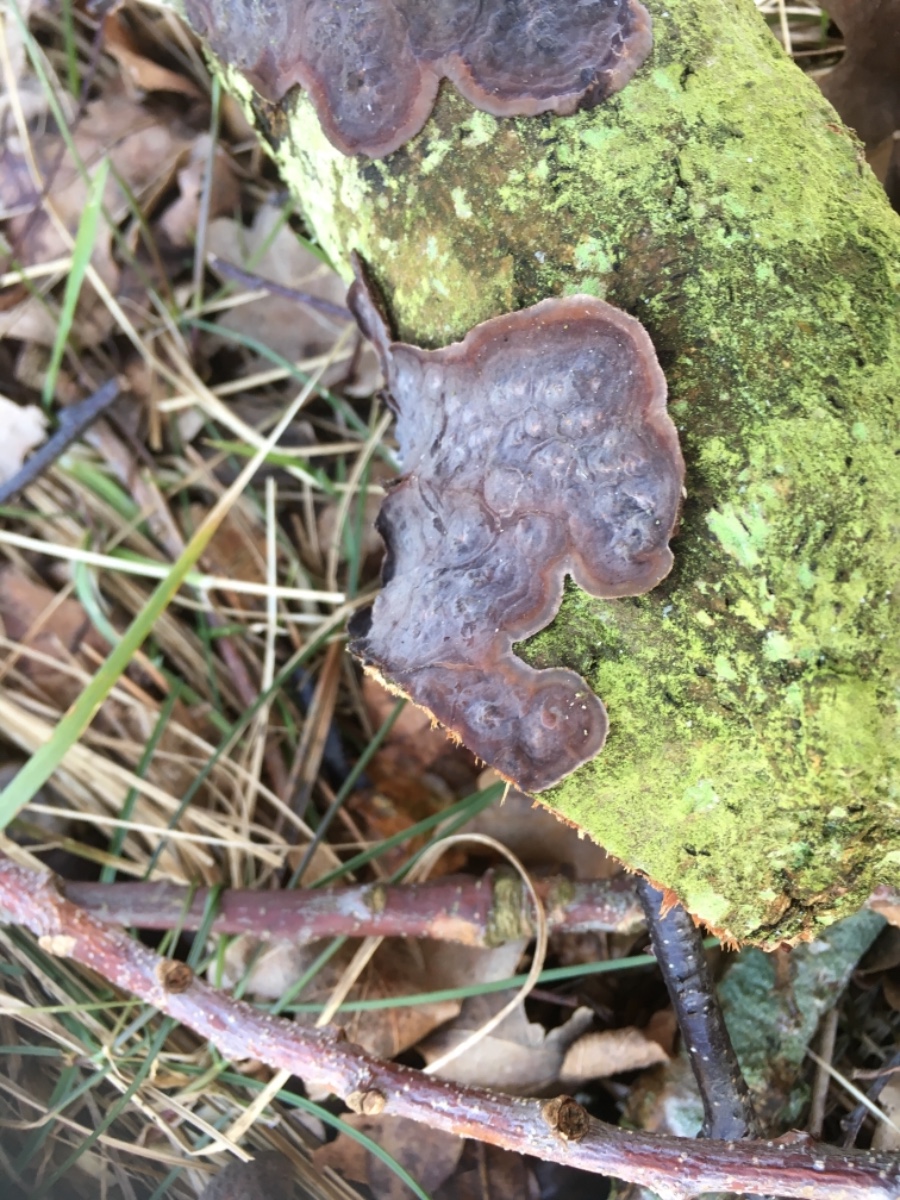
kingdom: Fungi
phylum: Basidiomycota
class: Agaricomycetes
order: Russulales
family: Peniophoraceae
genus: Peniophora
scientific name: Peniophora quercina
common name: ege-voksskind
